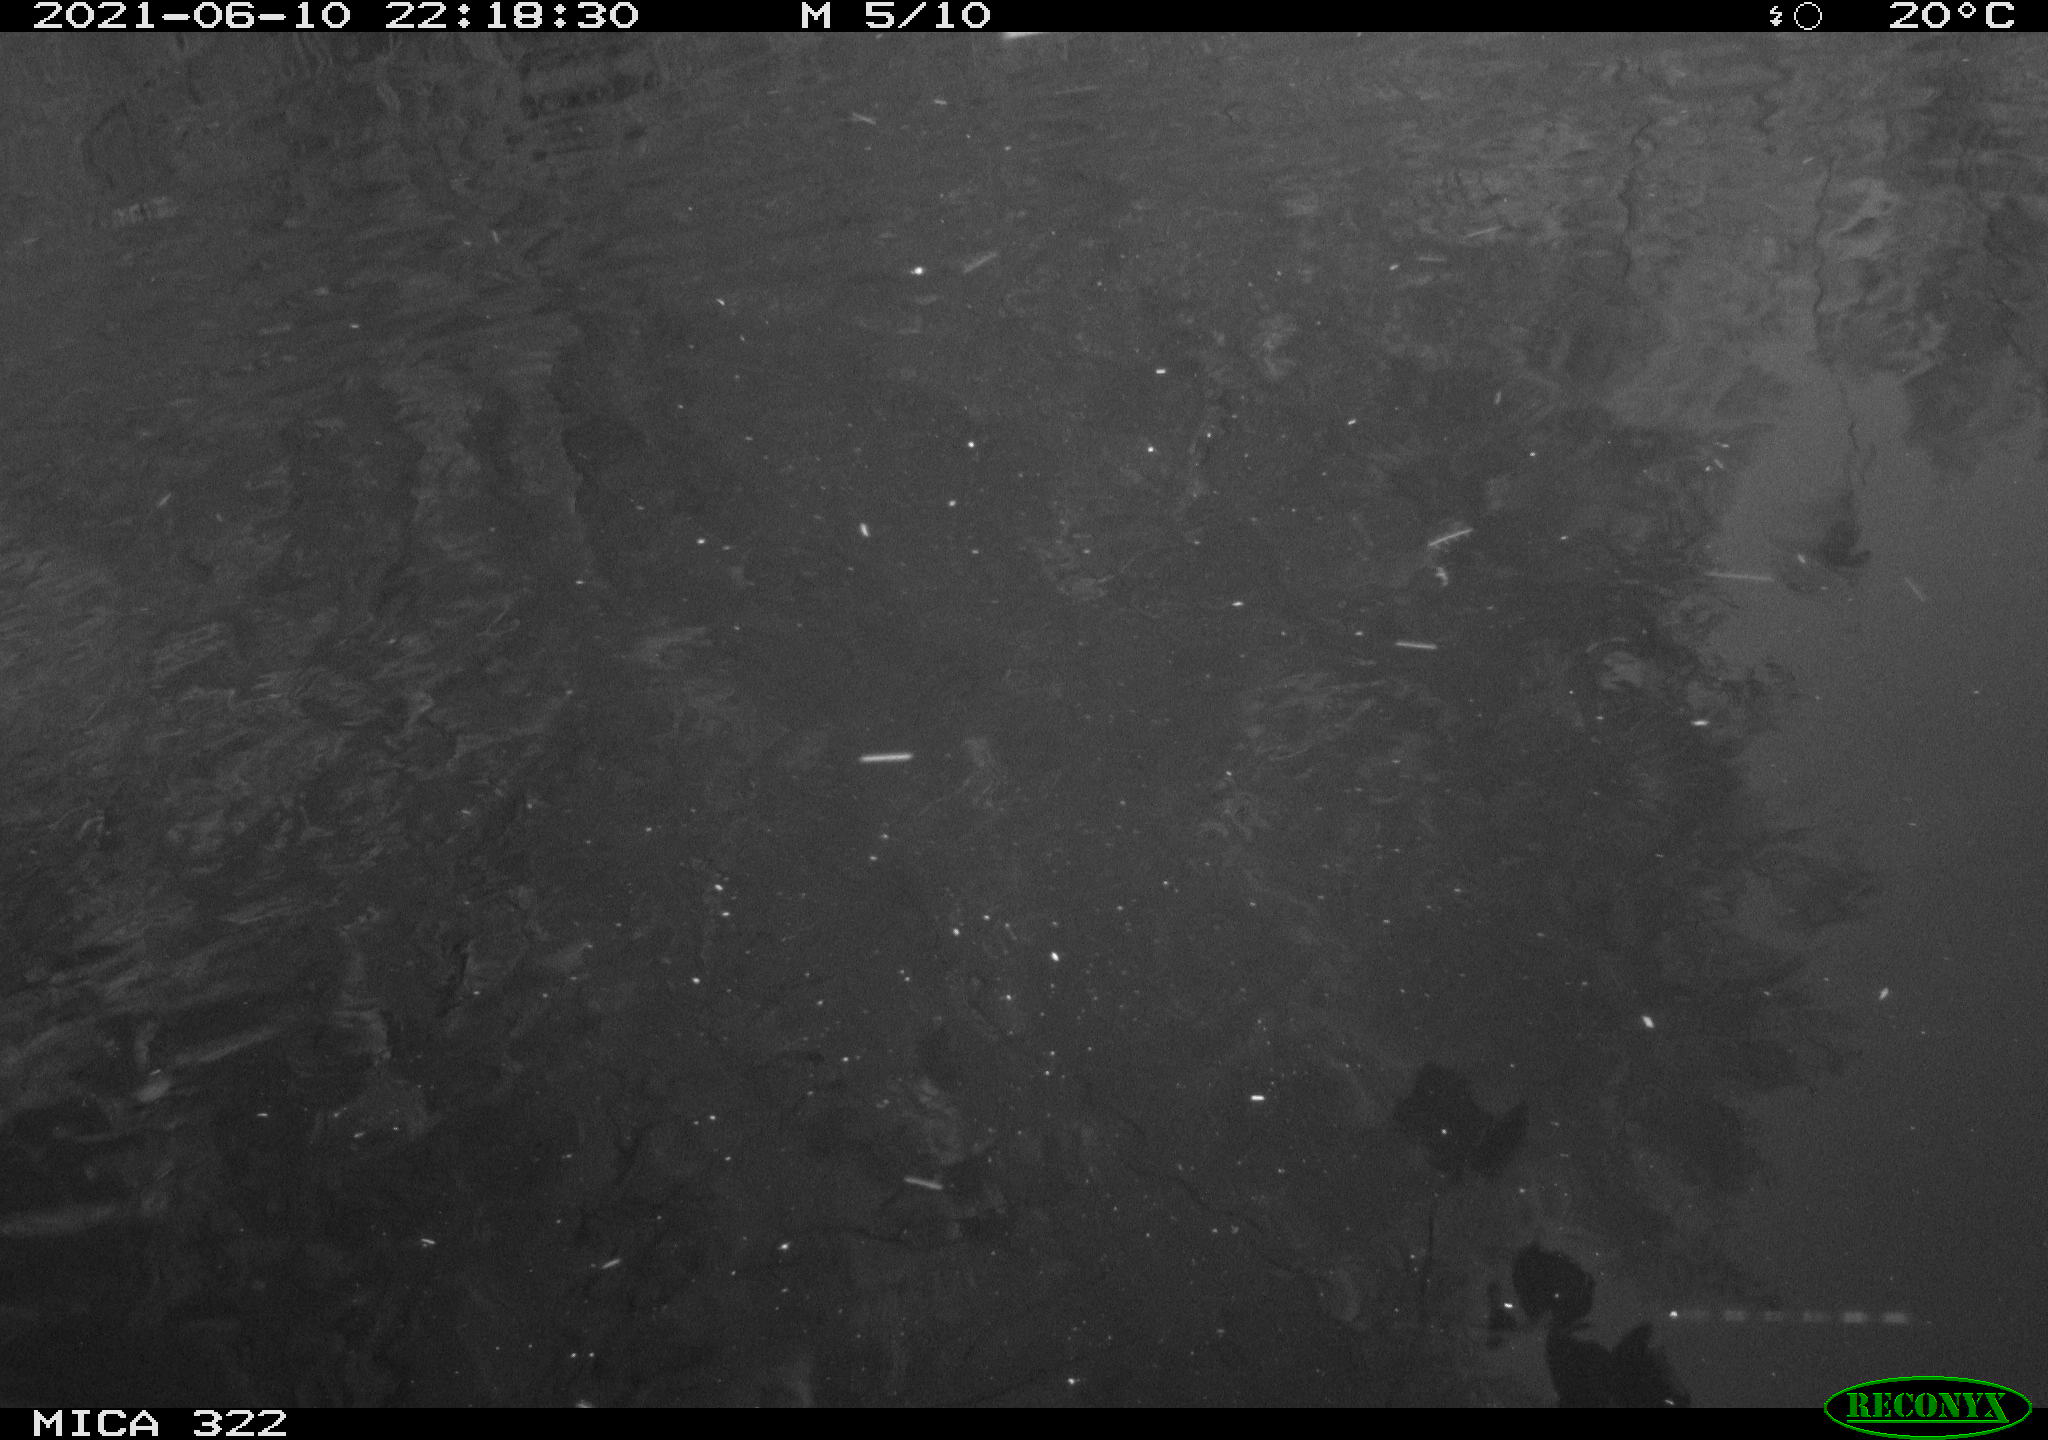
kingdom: Animalia
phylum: Chordata
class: Aves
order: Anseriformes
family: Anatidae
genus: Anas
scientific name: Anas platyrhynchos
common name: Mallard
